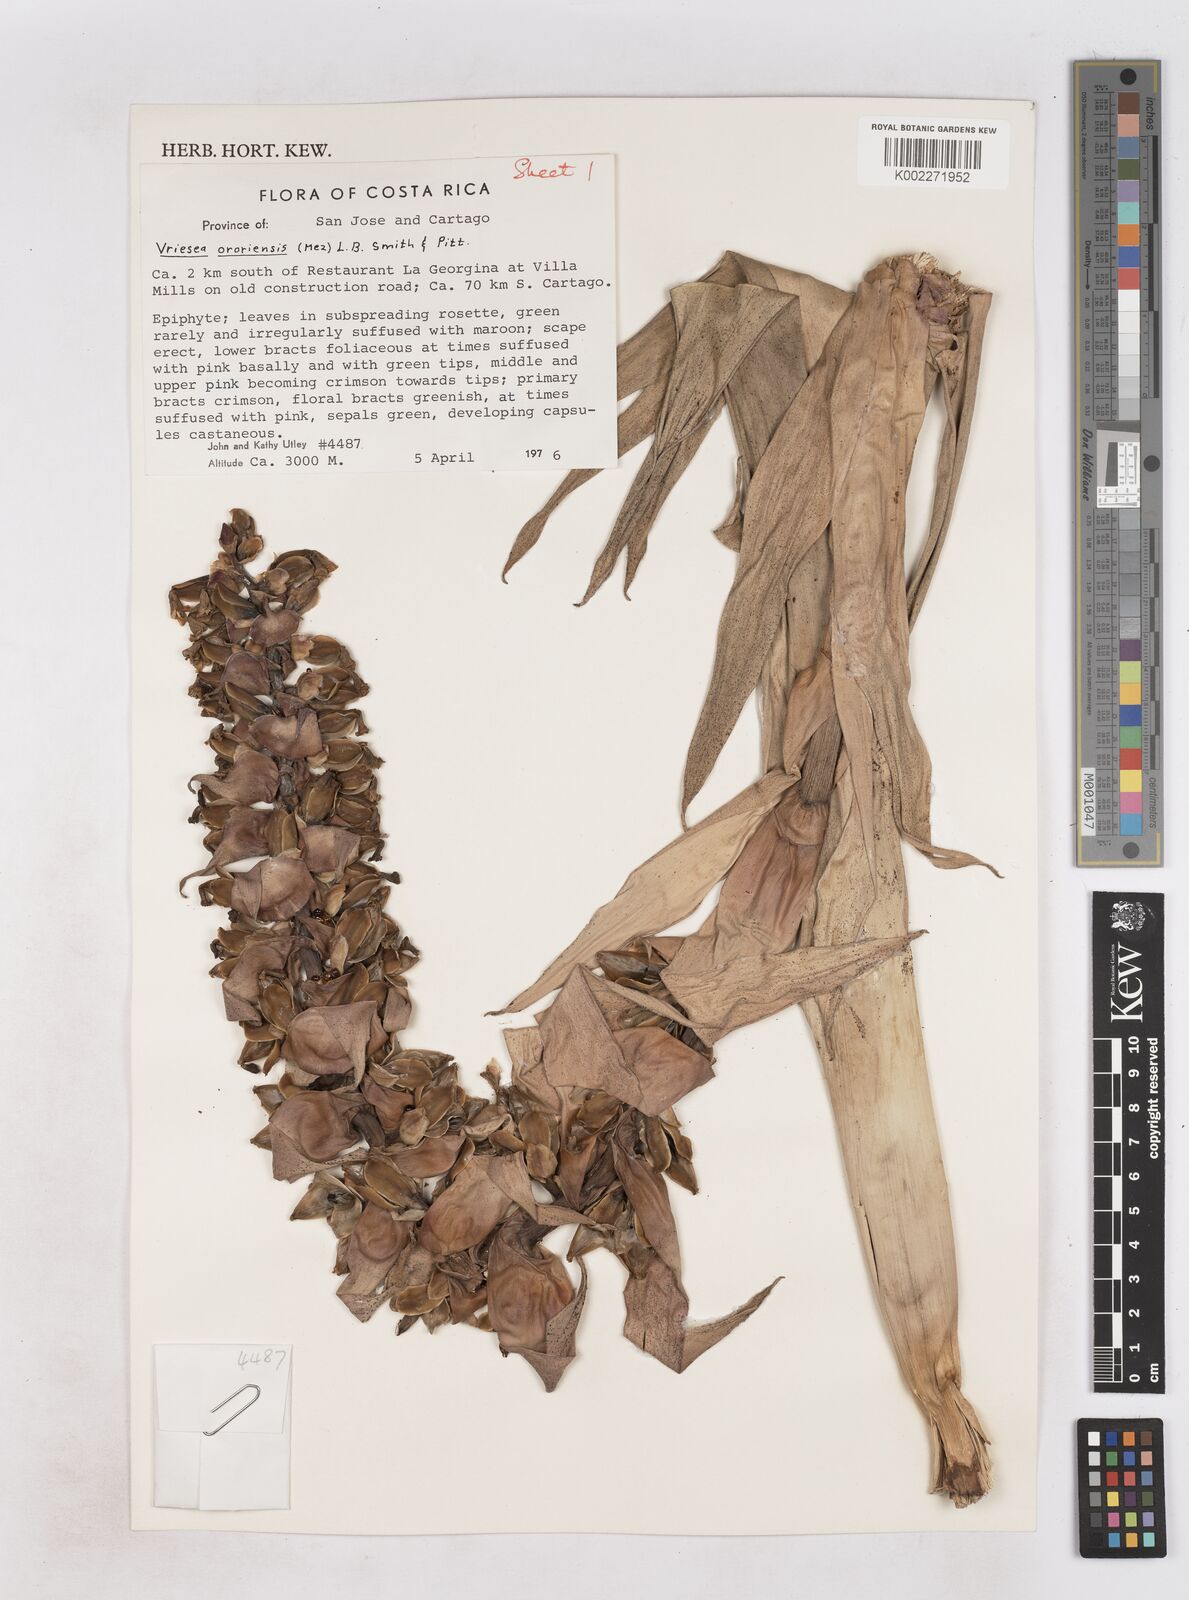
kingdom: Plantae
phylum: Tracheophyta
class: Liliopsida
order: Poales
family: Bromeliaceae
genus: Werauhia
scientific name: Werauhia ororiensis
